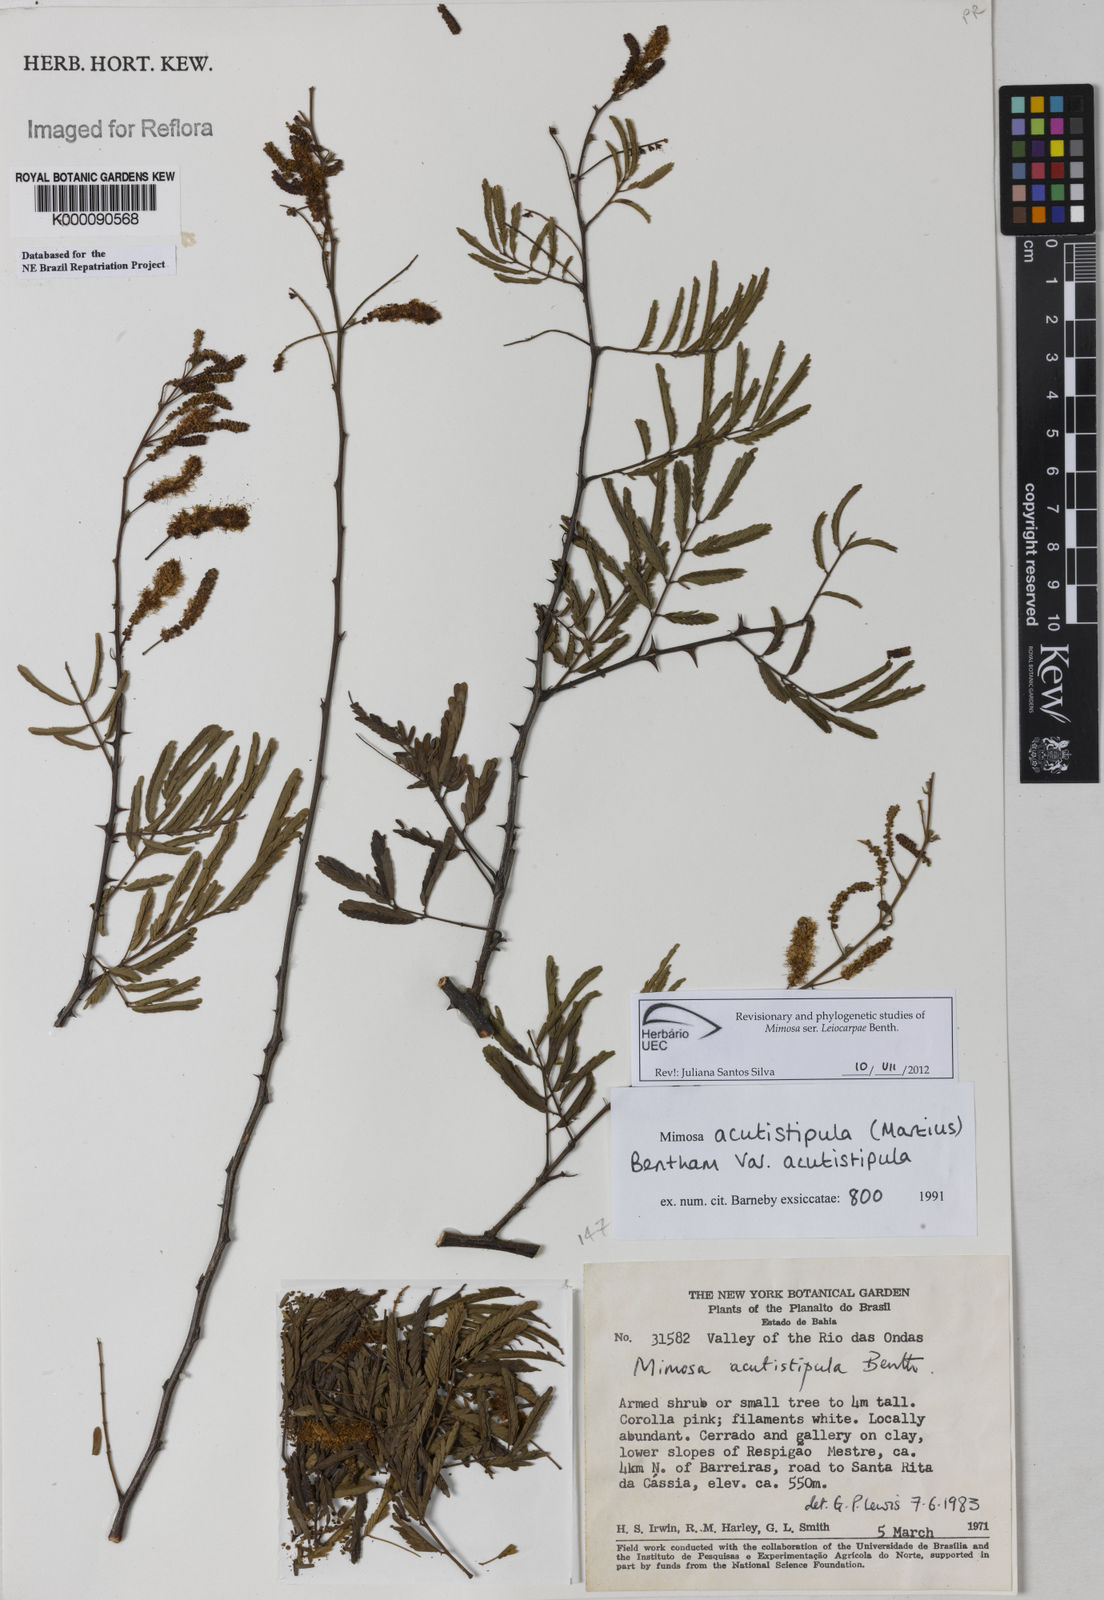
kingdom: Plantae
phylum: Tracheophyta
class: Magnoliopsida
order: Fabales
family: Fabaceae
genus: Mimosa
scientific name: Mimosa acutistipula
